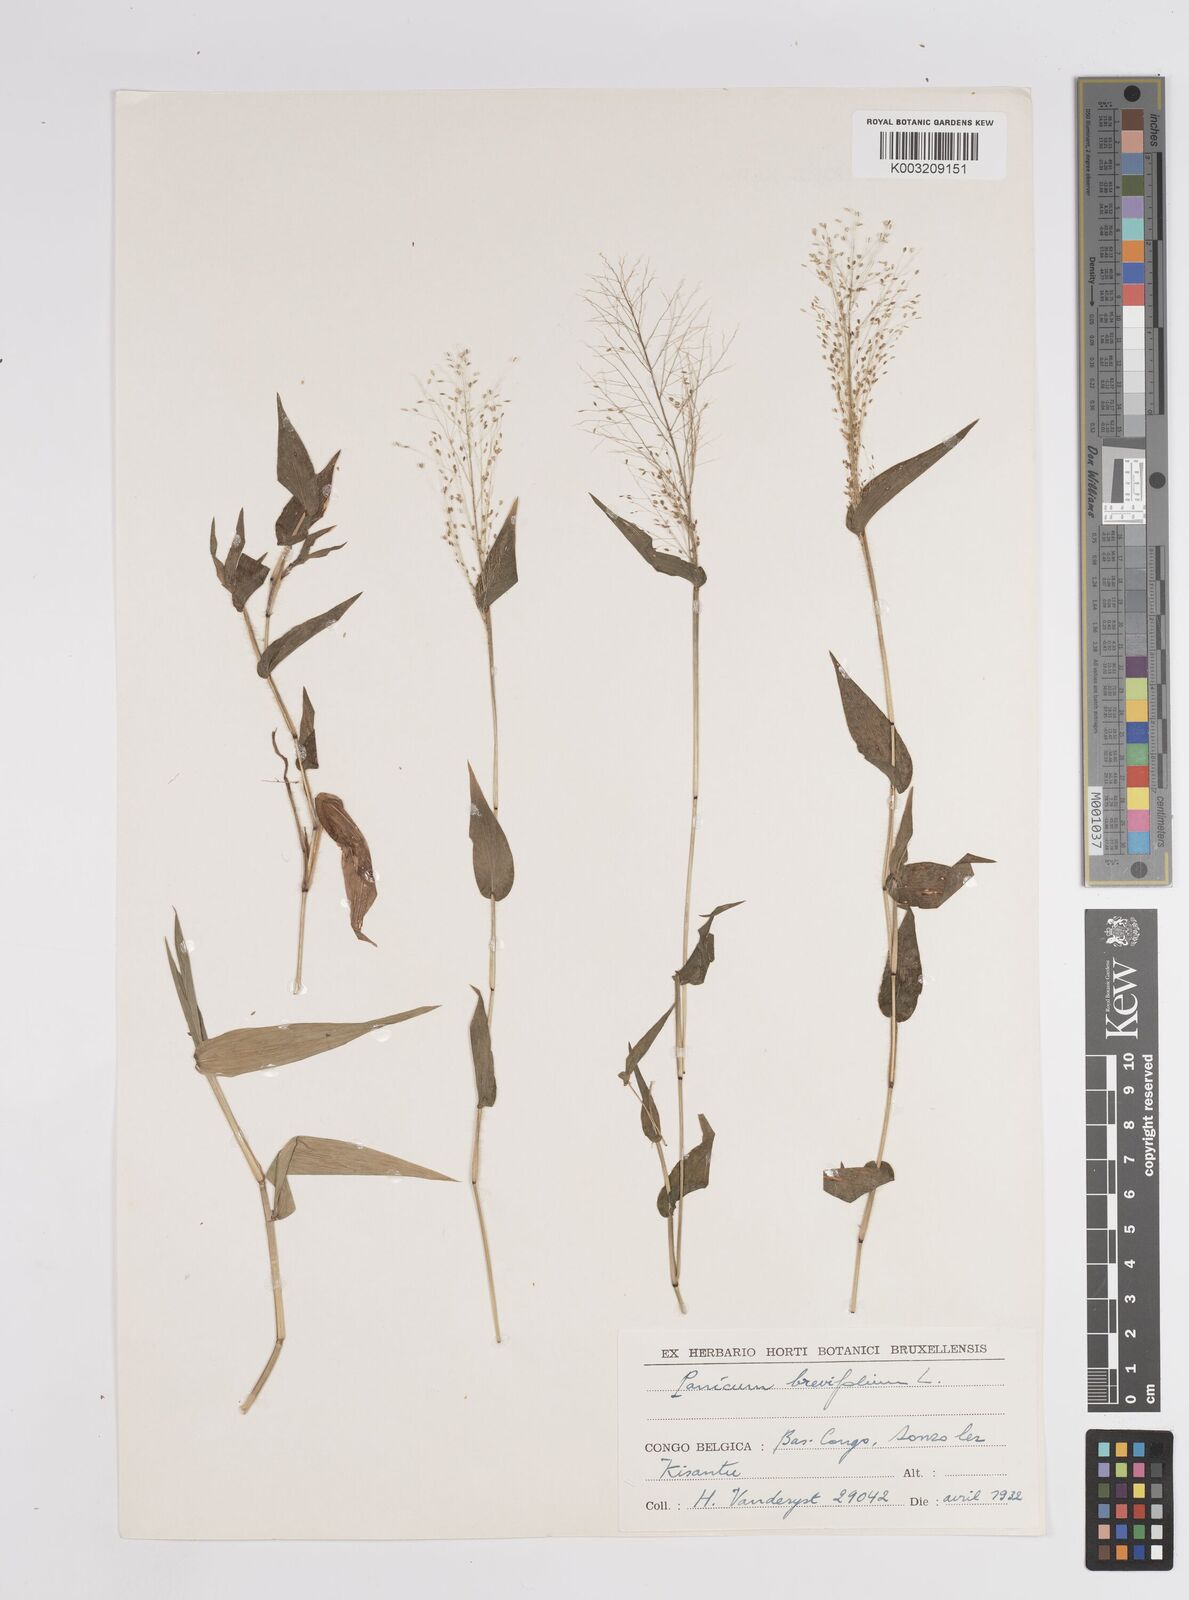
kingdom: Plantae
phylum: Tracheophyta
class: Liliopsida
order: Poales
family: Poaceae
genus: Panicum
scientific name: Panicum brevifolium
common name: Shortleaf panic grass
